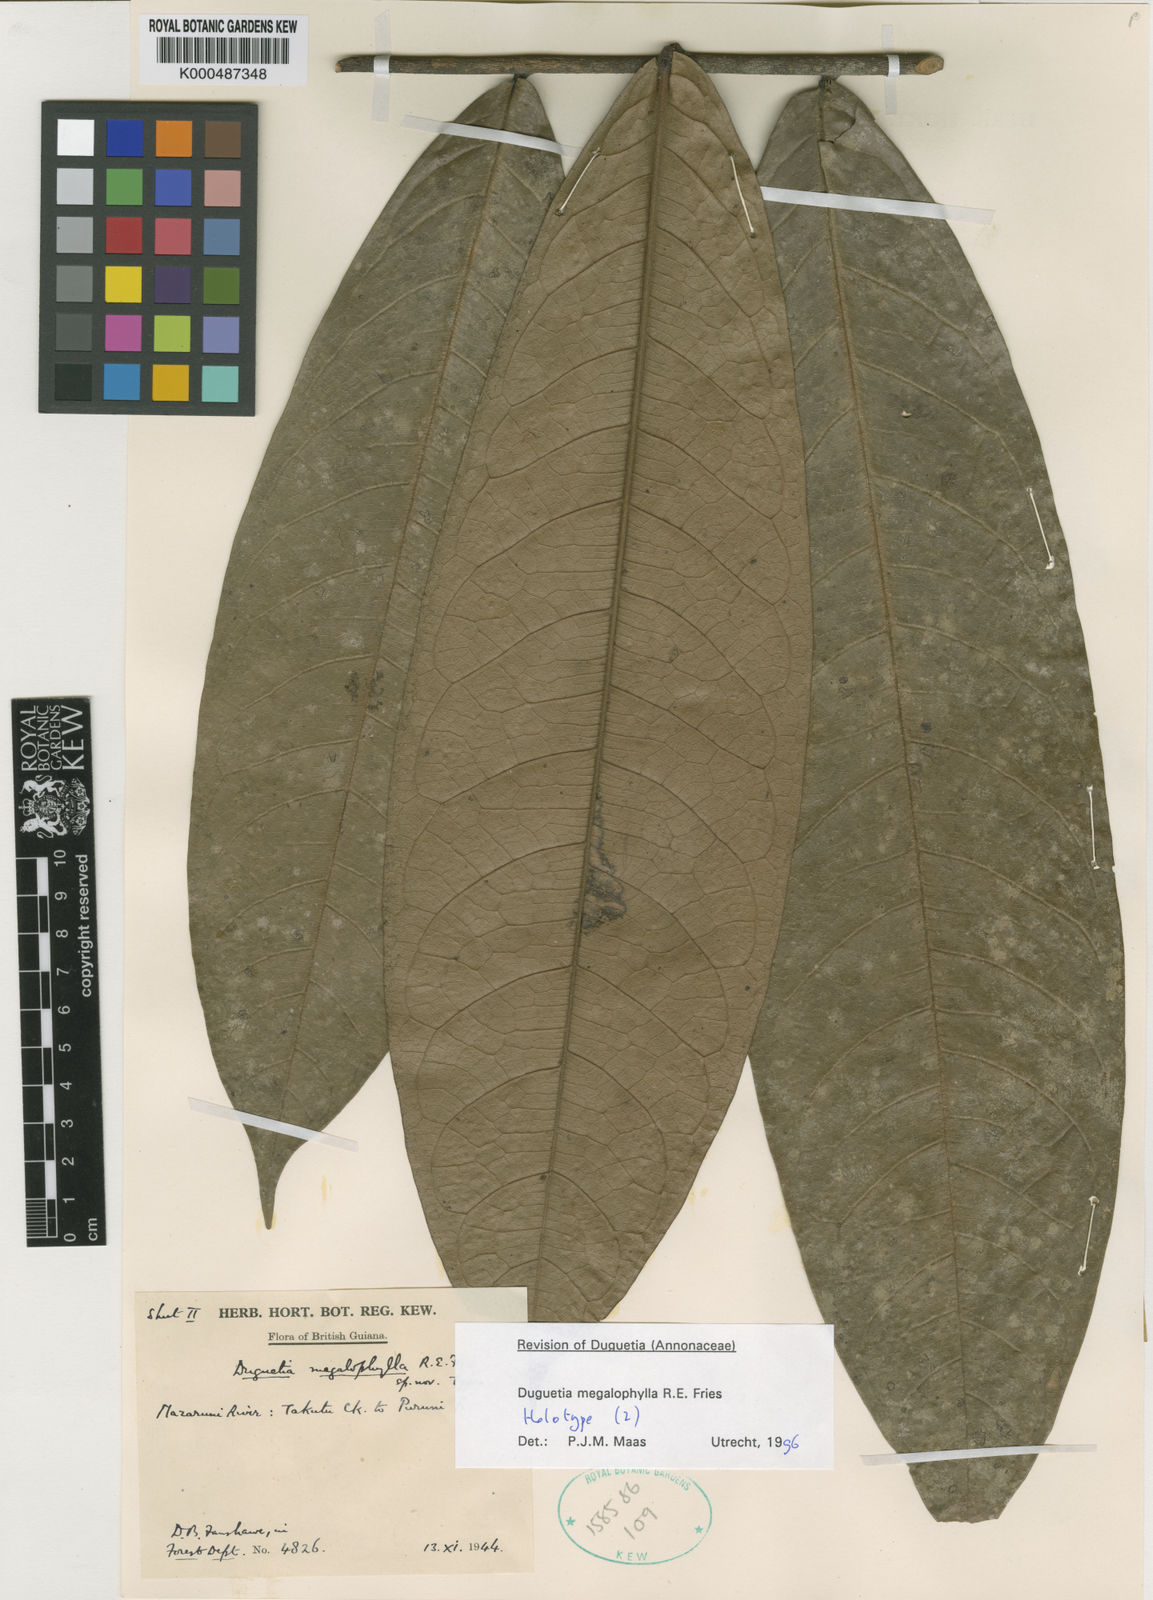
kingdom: Plantae
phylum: Tracheophyta
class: Magnoliopsida
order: Magnoliales
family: Annonaceae
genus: Duguetia
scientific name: Duguetia megalophylla
